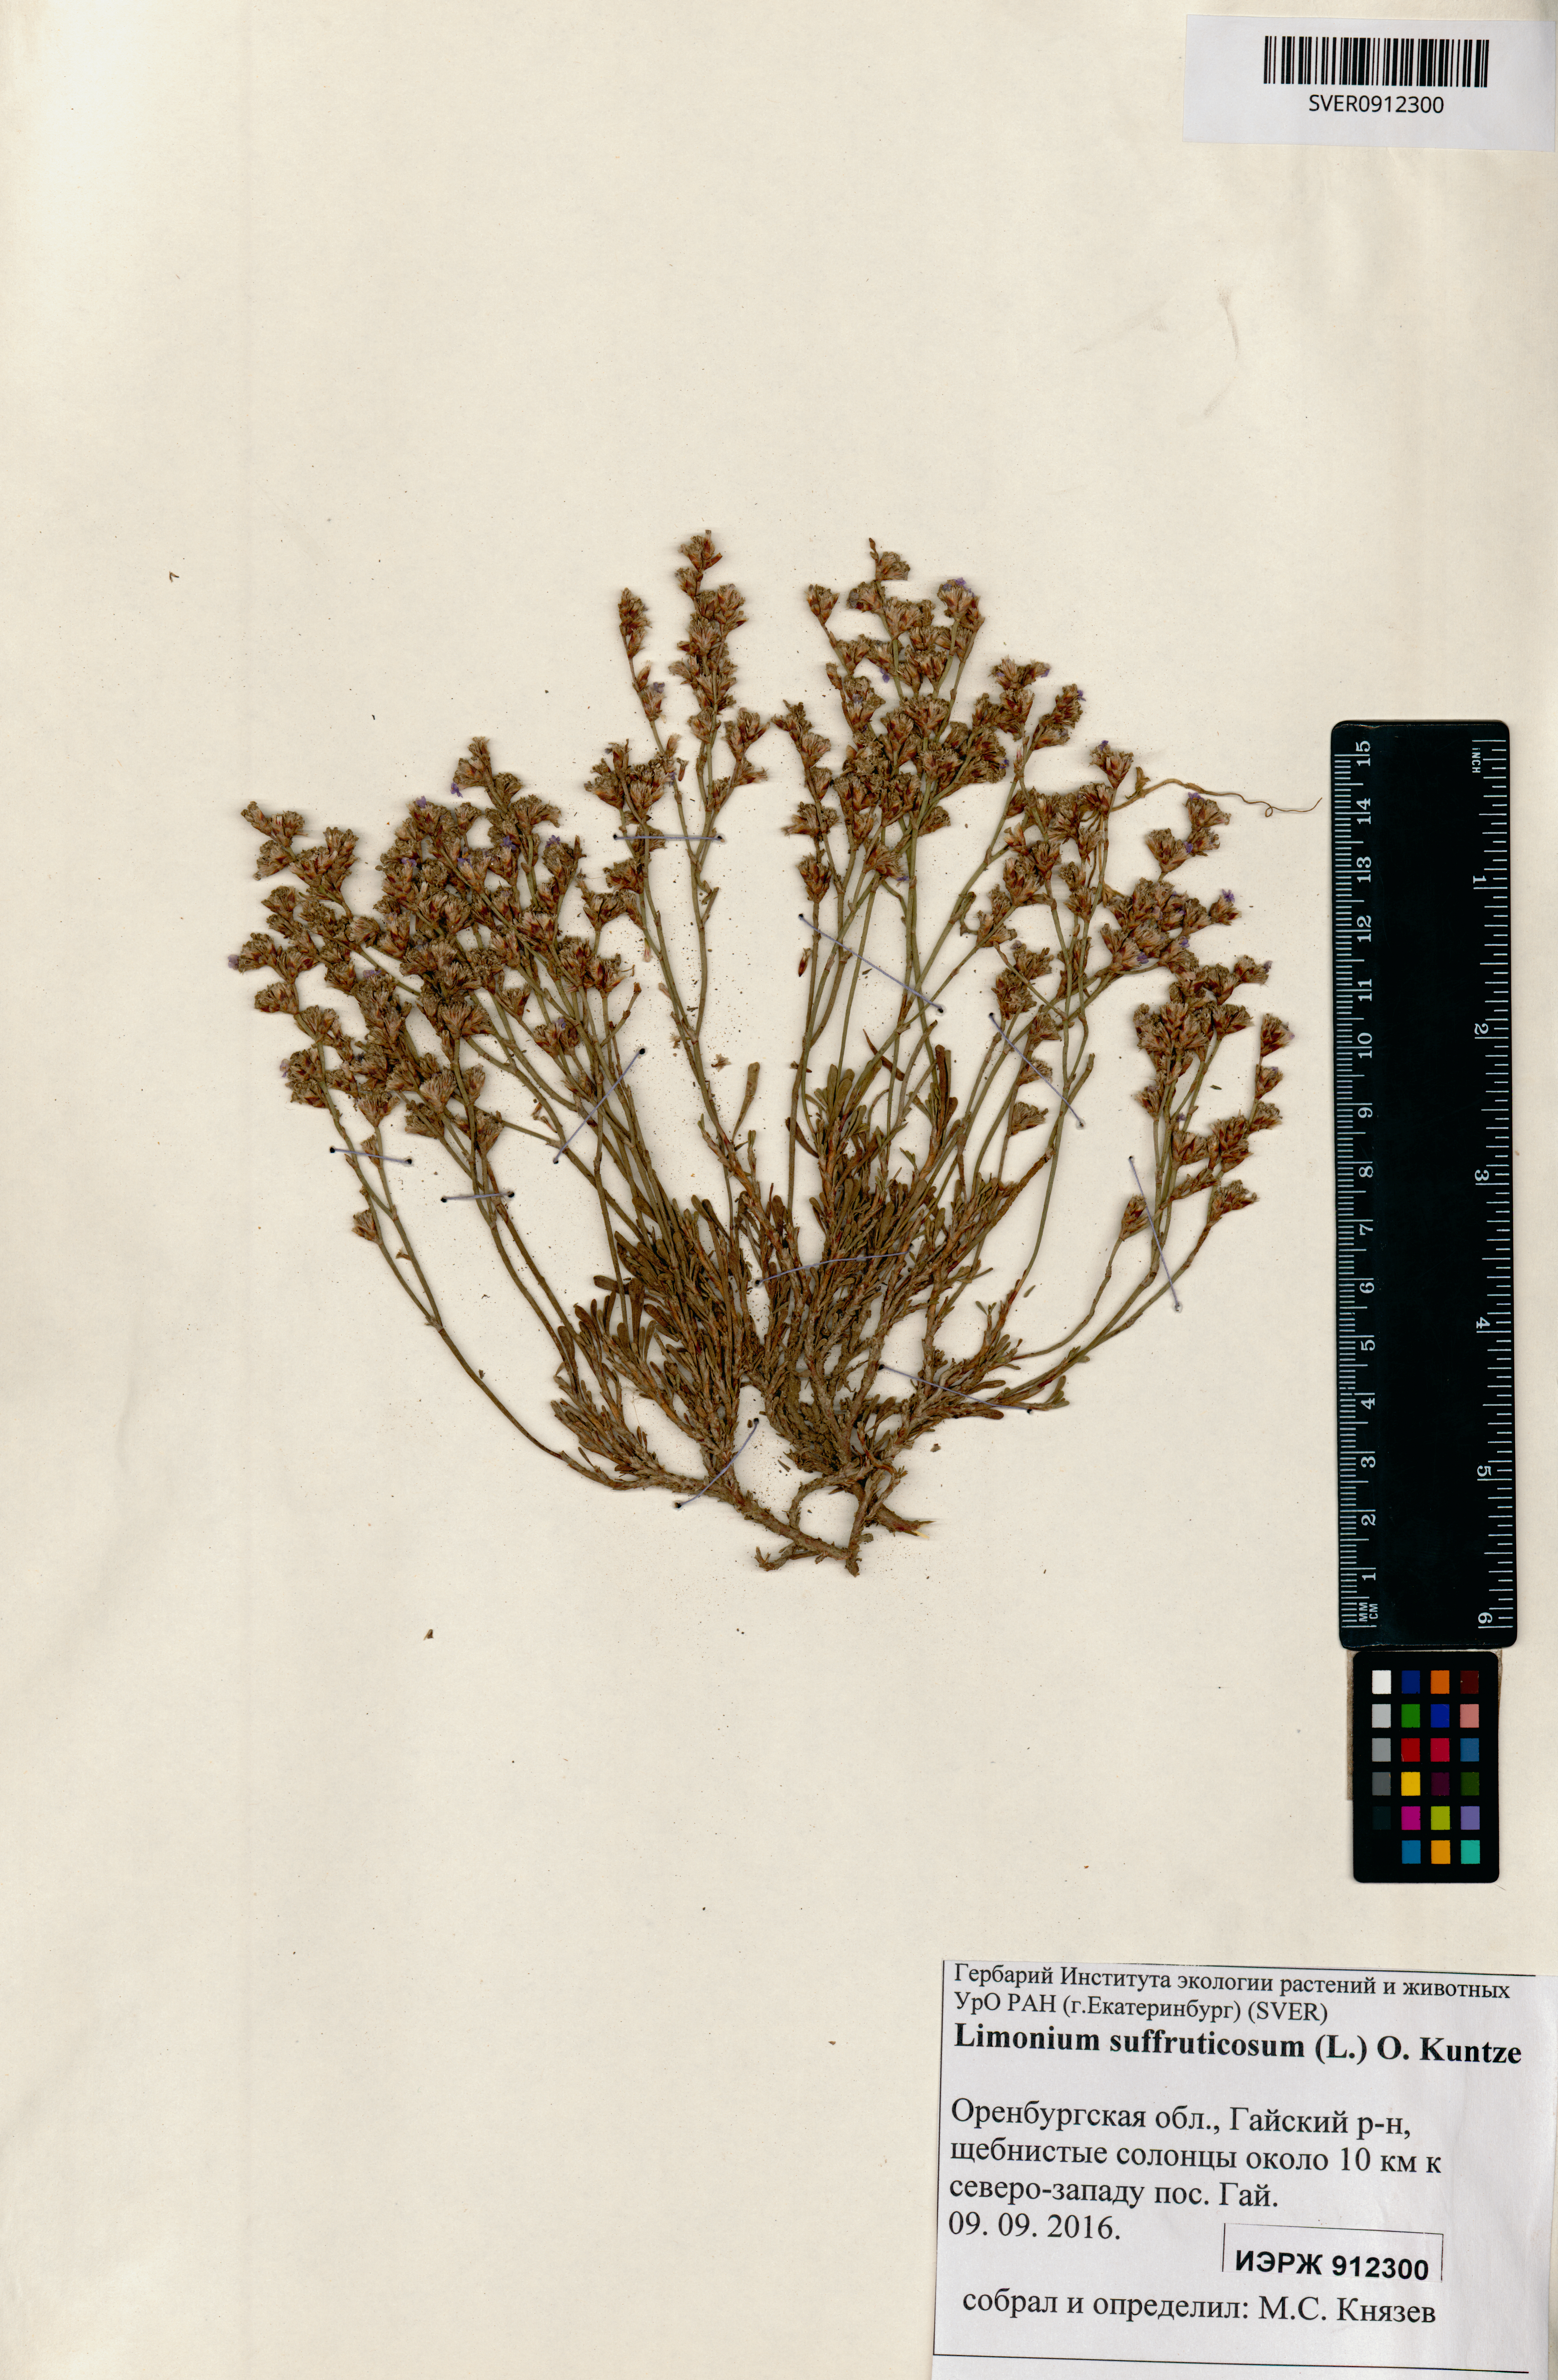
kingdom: Plantae
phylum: Tracheophyta
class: Magnoliopsida
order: Caryophyllales
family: Plumbaginaceae
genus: Limonium
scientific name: Limonium suffruticosum
